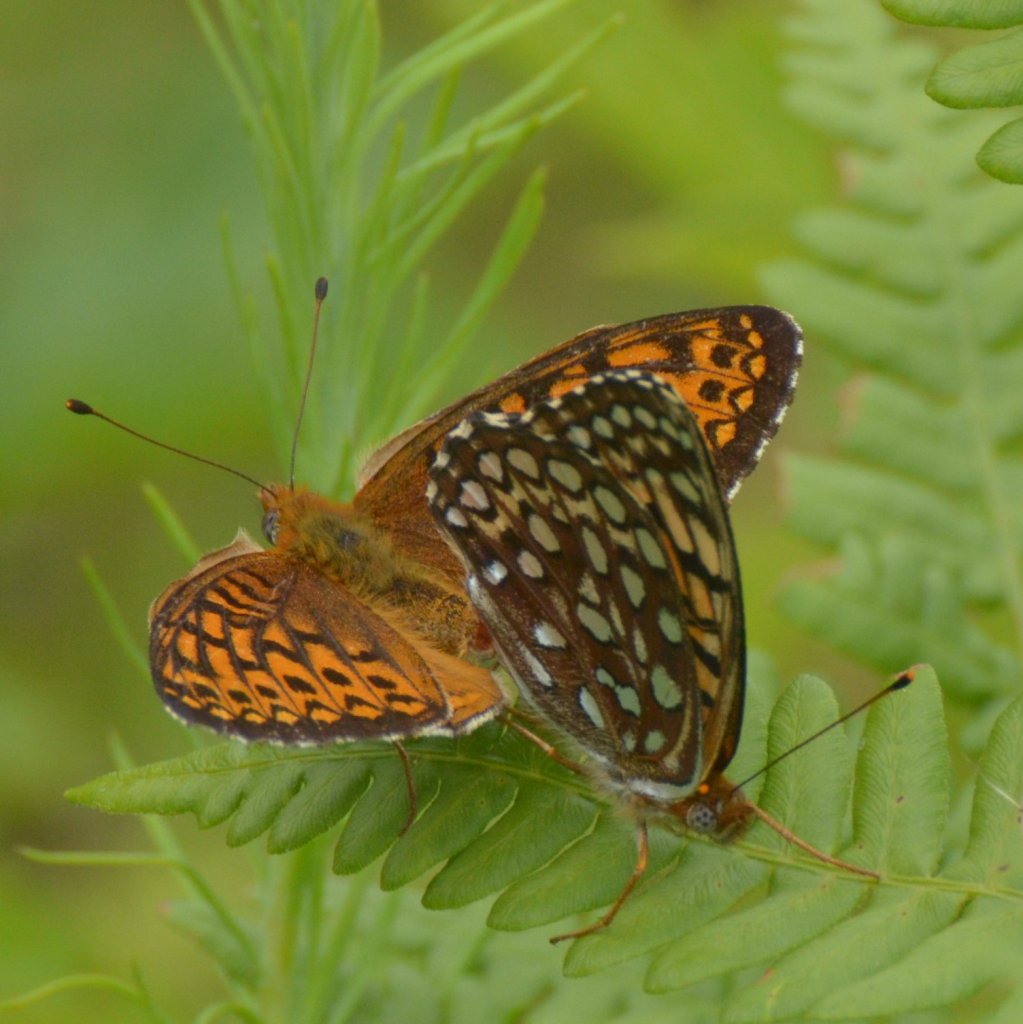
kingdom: Animalia
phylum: Arthropoda
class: Insecta
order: Lepidoptera
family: Nymphalidae
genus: Speyeria
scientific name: Speyeria atlantis
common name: Atlantis Fritillary
